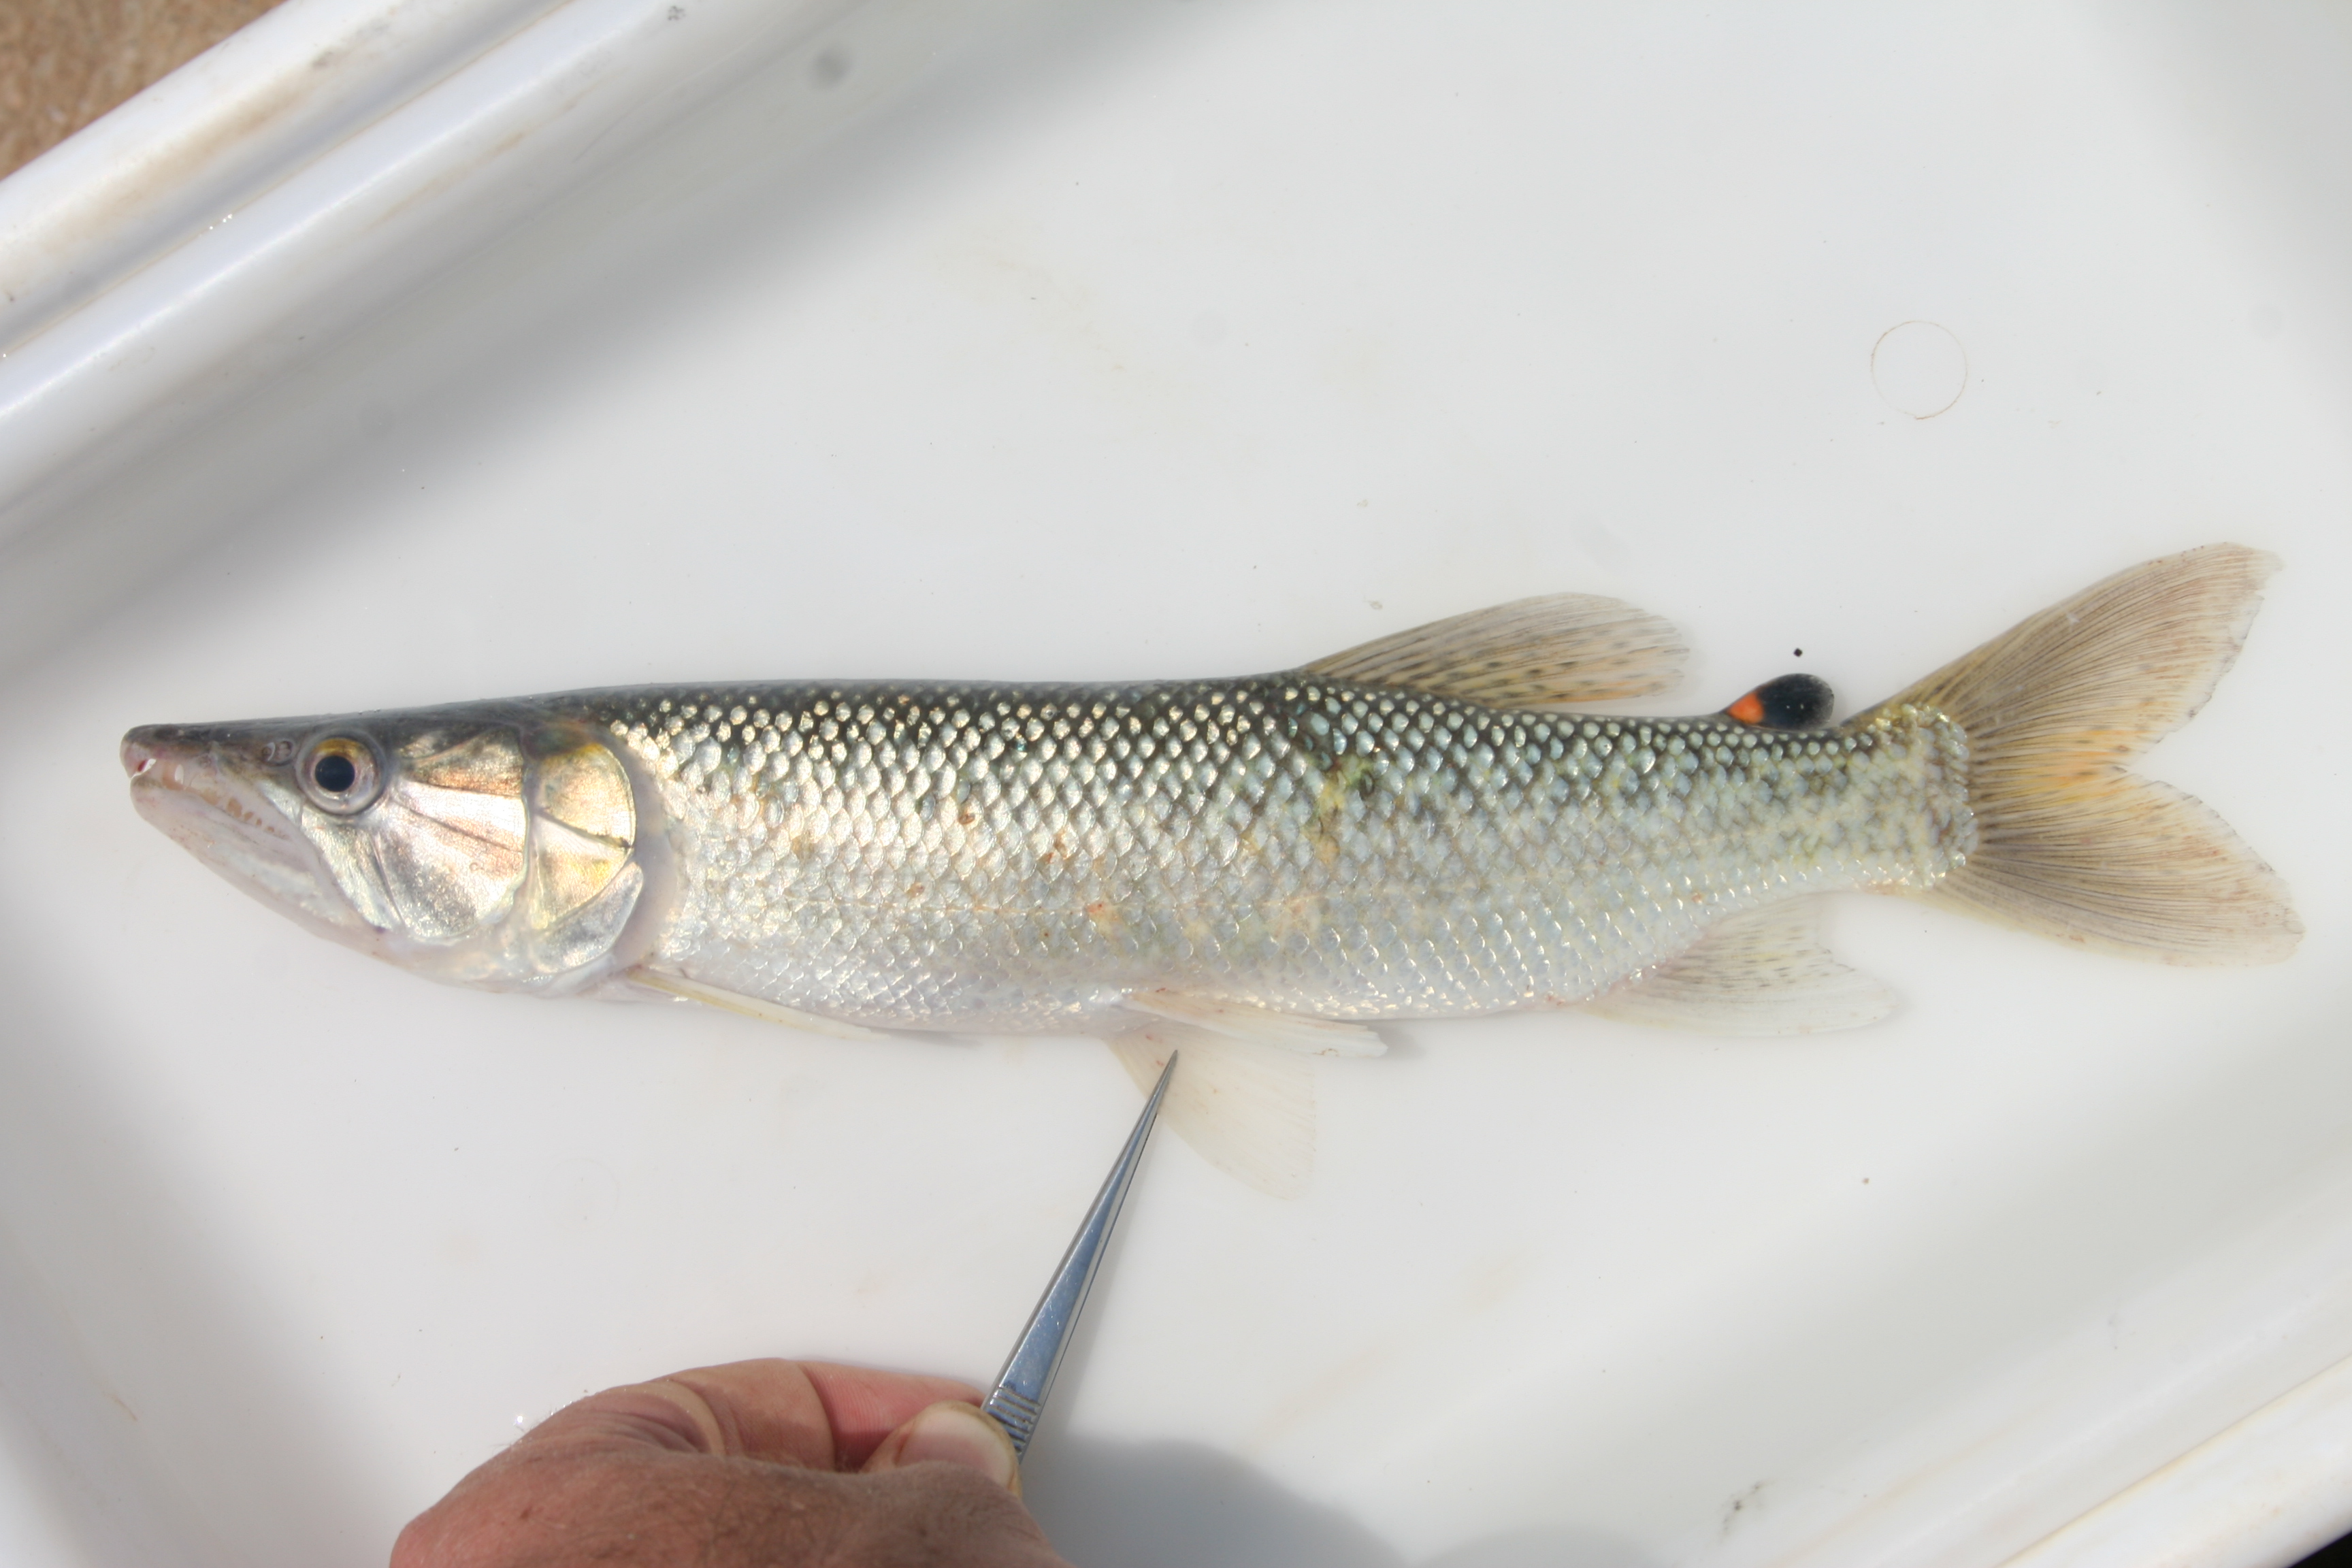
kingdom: Animalia
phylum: Chordata
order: Characiformes
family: Hepsetidae
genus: Hepsetus
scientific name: Hepsetus cuvieri
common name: African pike
